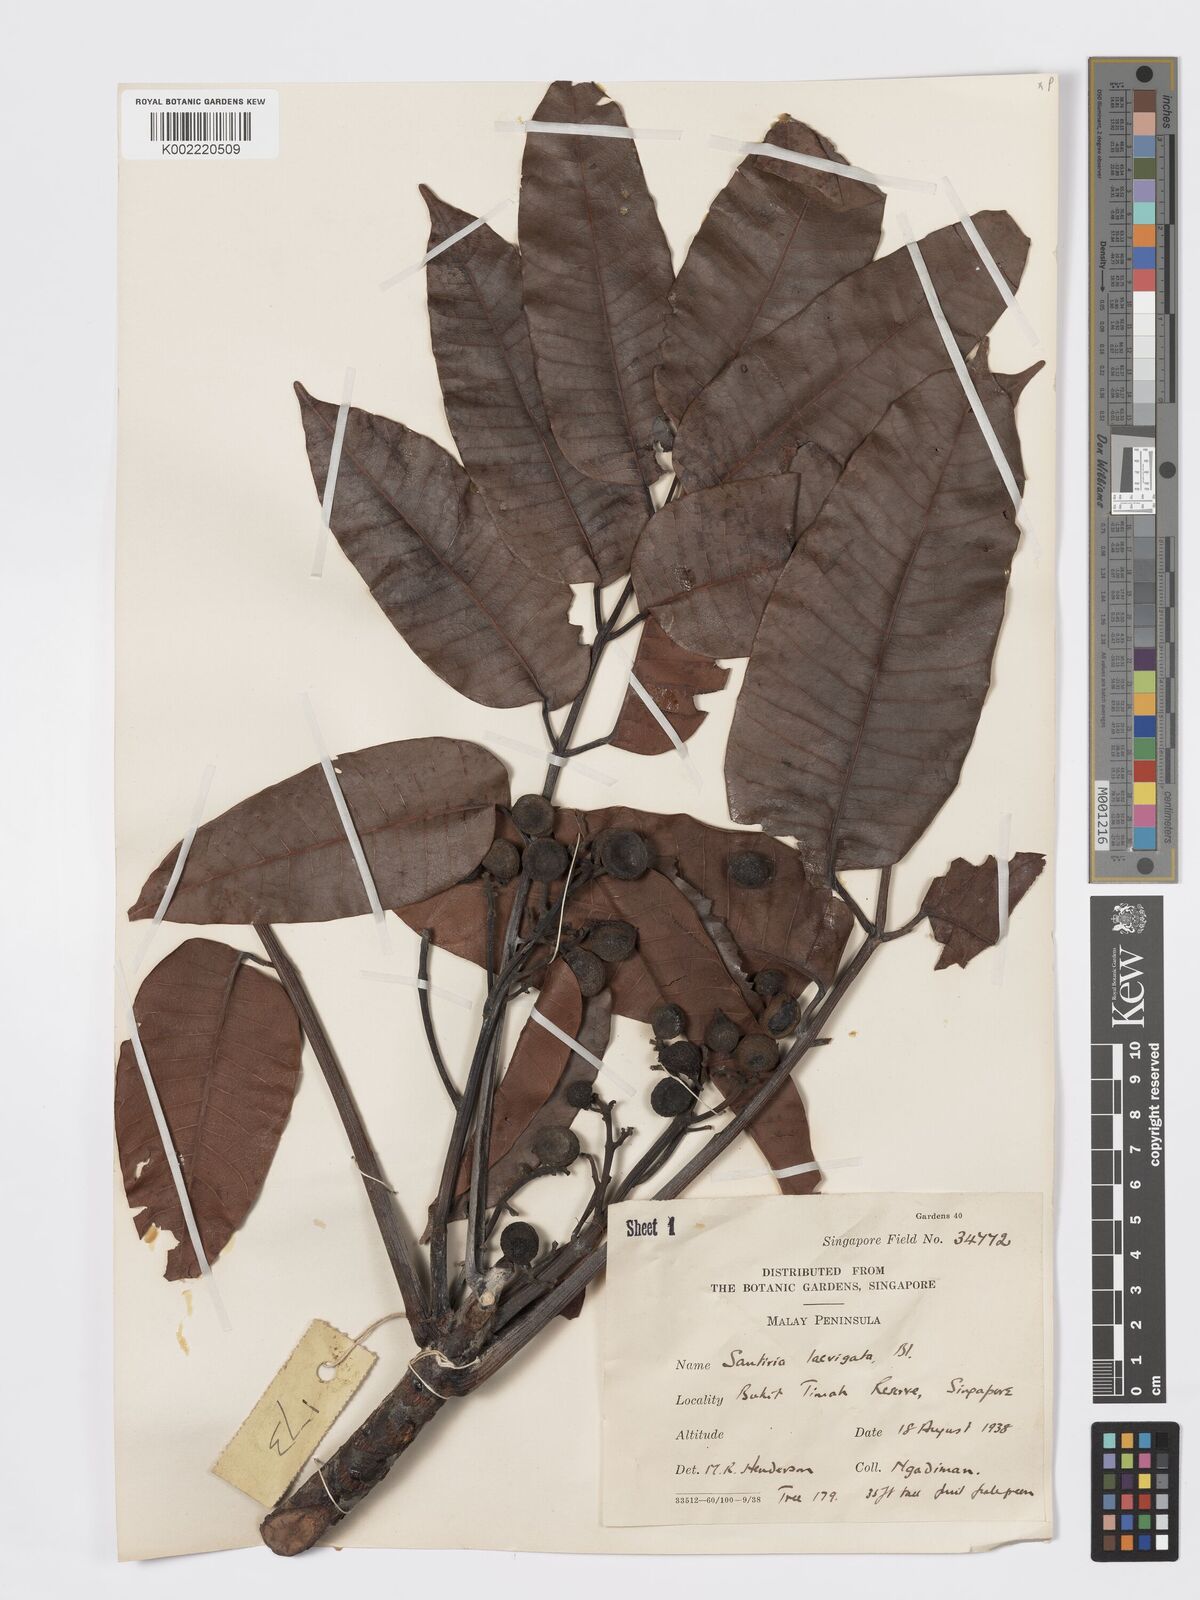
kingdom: Plantae
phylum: Tracheophyta
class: Magnoliopsida
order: Sapindales
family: Burseraceae
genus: Santiria
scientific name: Santiria laevigata
